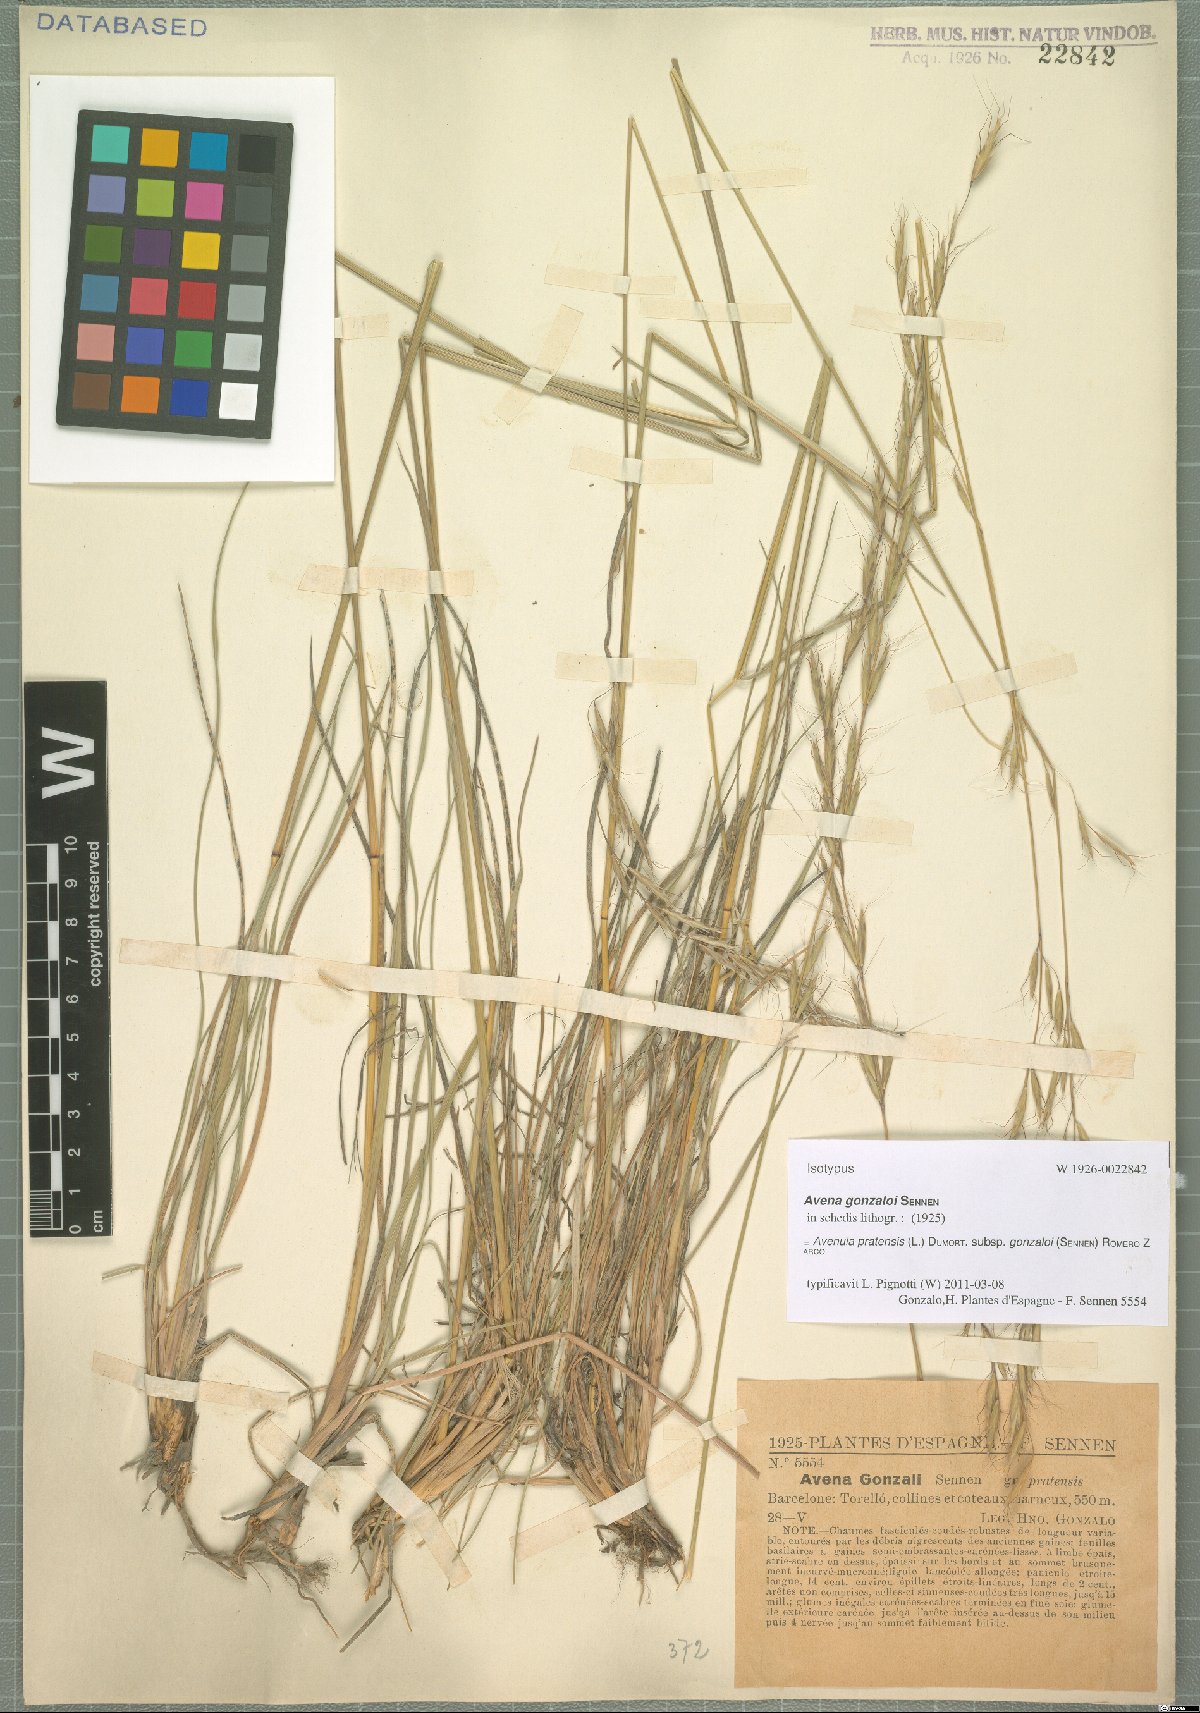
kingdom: Plantae
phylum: Tracheophyta
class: Liliopsida
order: Poales
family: Poaceae
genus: Helictochloa
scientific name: Helictochloa pratensis
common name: Meadow oat grass
